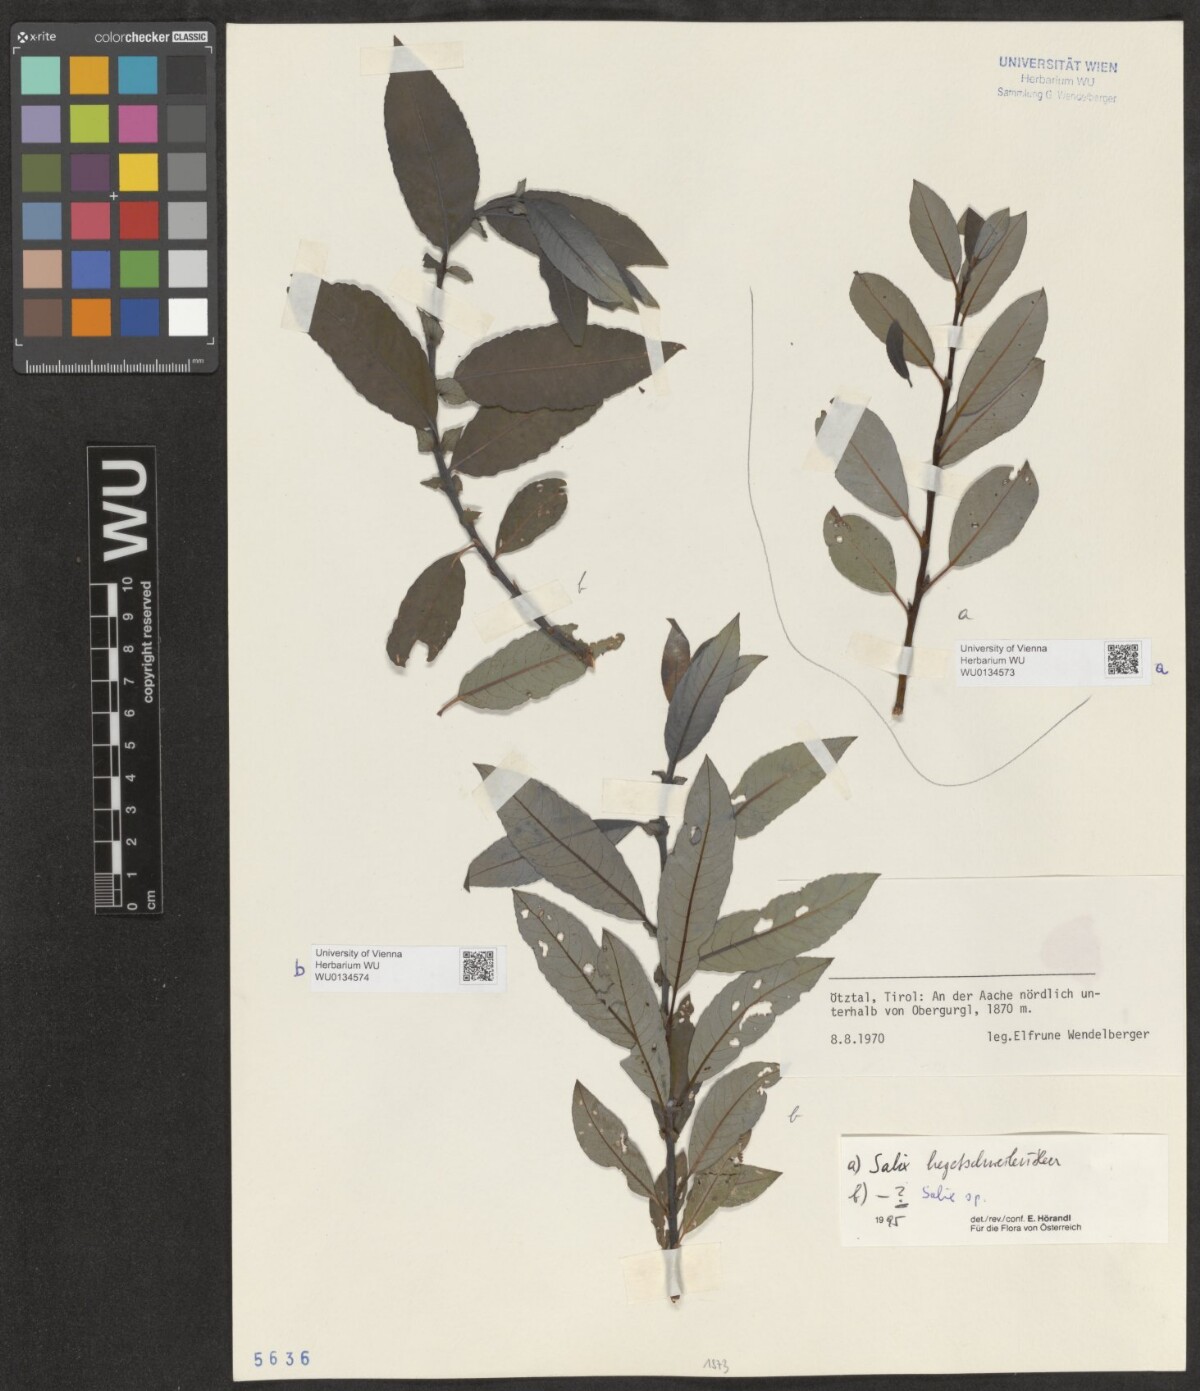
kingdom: Plantae
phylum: Tracheophyta
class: Magnoliopsida
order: Malpighiales
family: Salicaceae
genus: Salix
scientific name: Salix hegetschweileri
